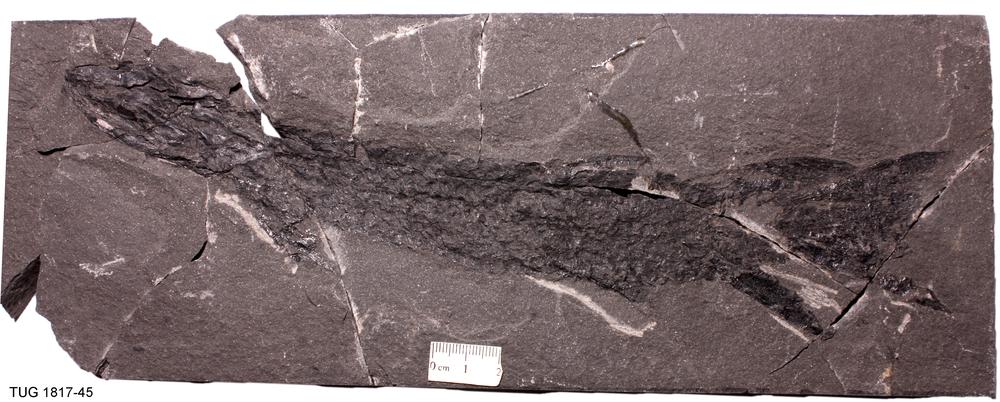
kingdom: Animalia
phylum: Chordata
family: Eusthenopteridae
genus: Tristichopterus
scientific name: Tristichopterus alatus
